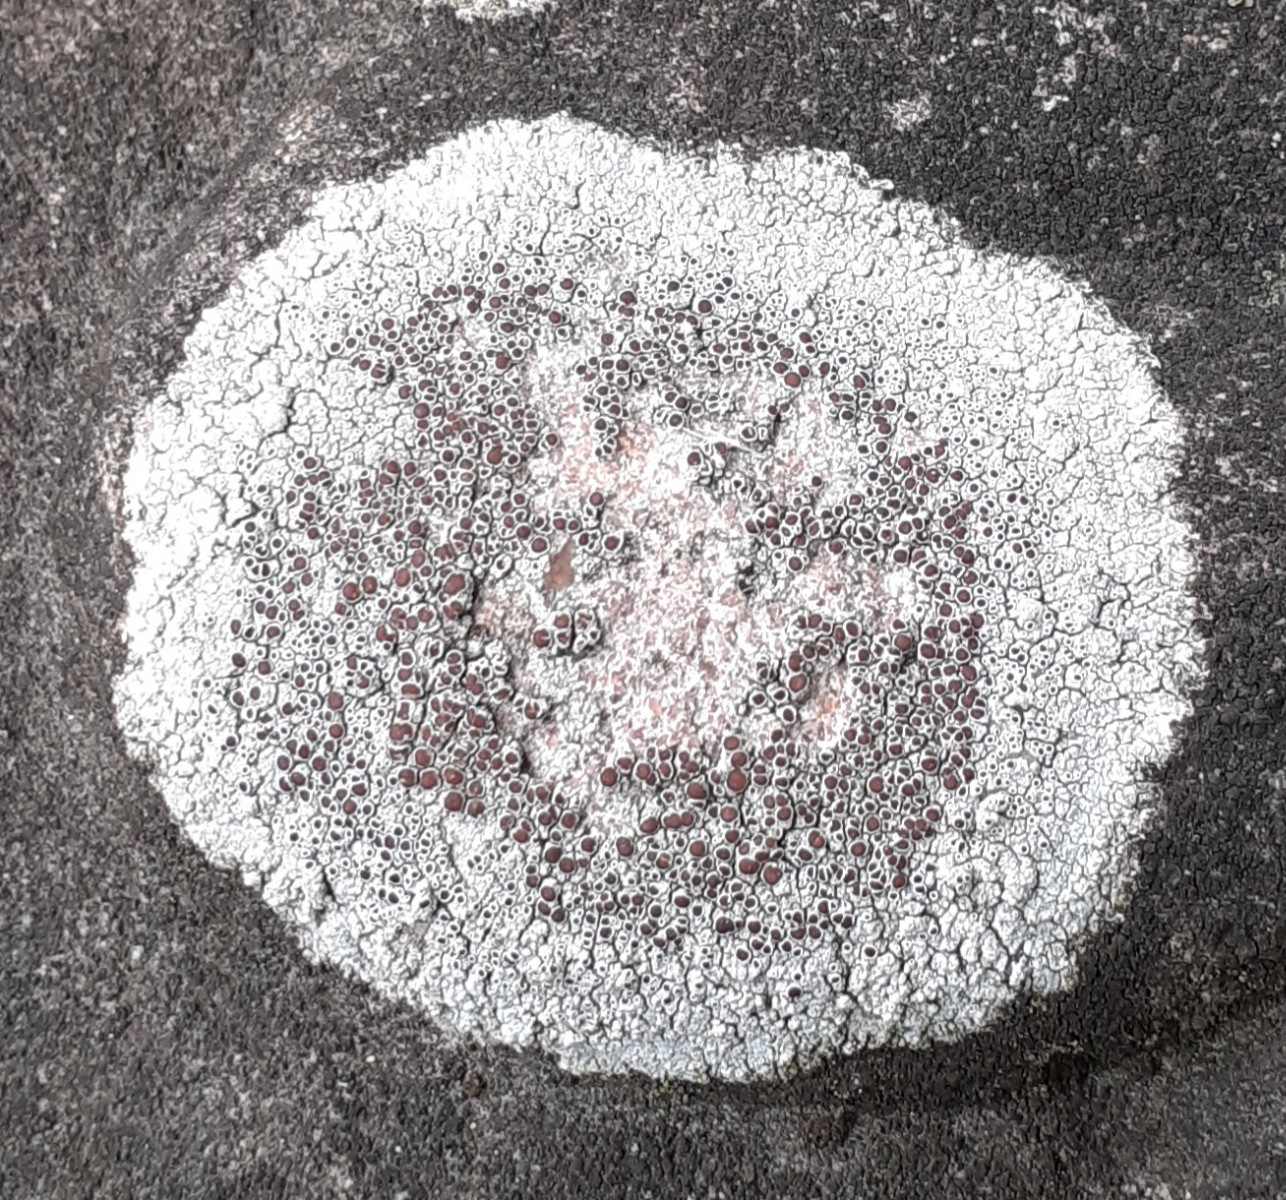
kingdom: Fungi
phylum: Ascomycota
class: Lecanoromycetes
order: Lecanorales
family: Lecanoraceae
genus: Lecanora
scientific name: Lecanora campestris
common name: mur-kantskivelav
